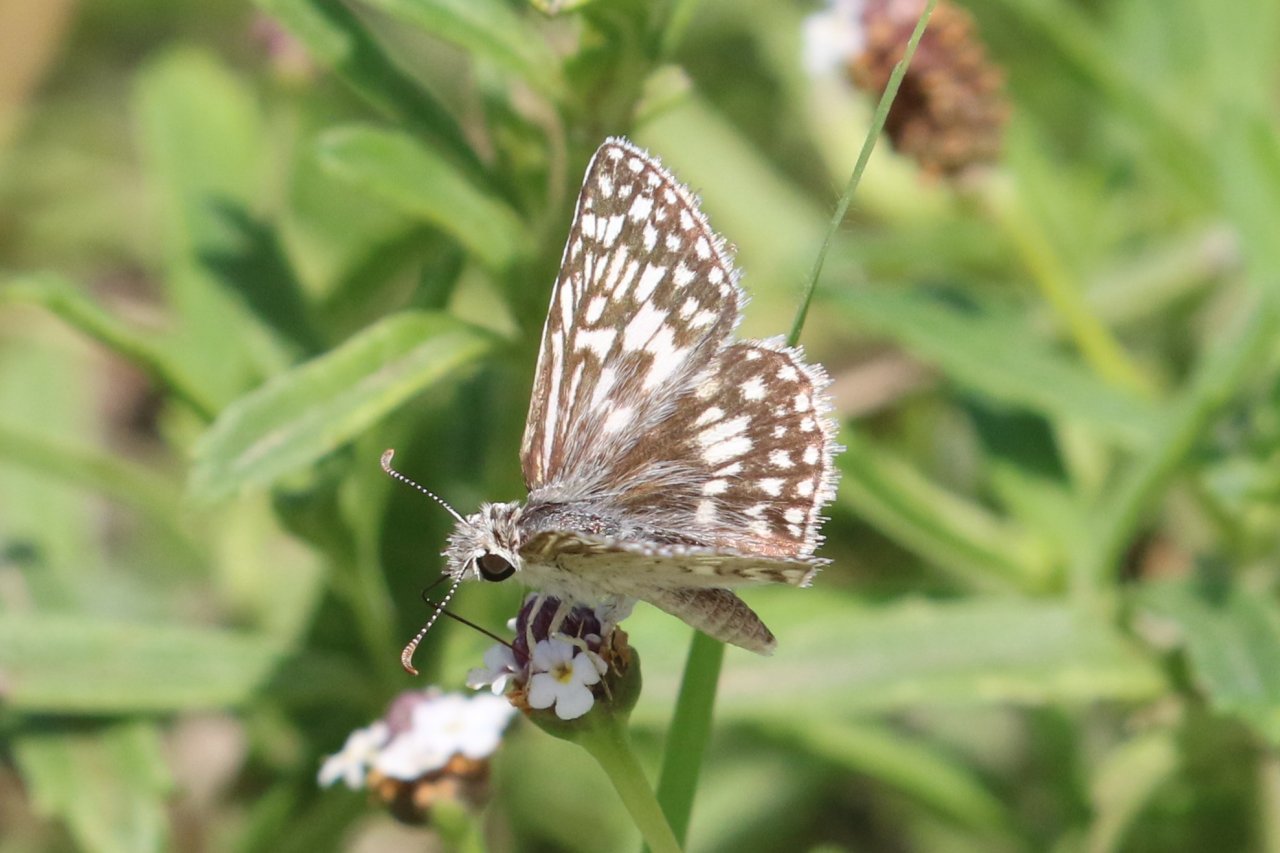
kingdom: Animalia
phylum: Arthropoda
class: Insecta
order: Lepidoptera
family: Hesperiidae
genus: Pyrgus
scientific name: Pyrgus oileus
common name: Desert Checkered-Skipper
